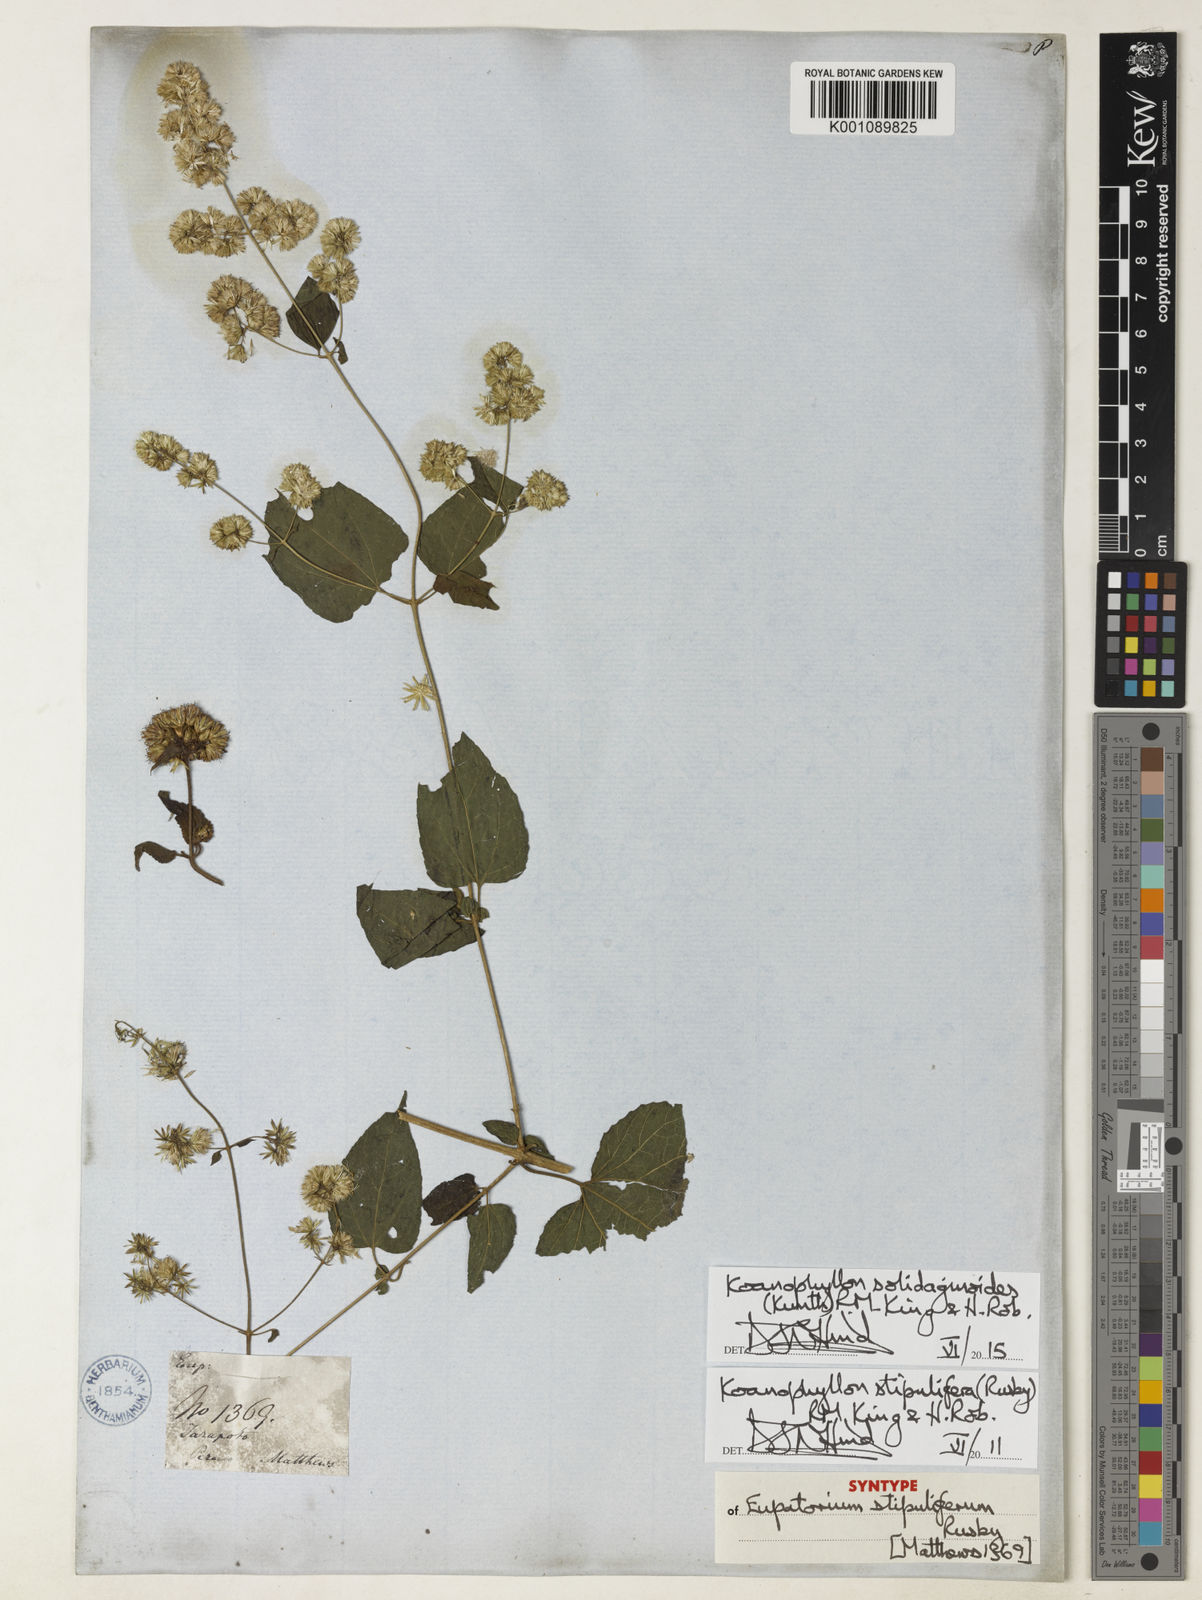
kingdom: Plantae
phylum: Tracheophyta
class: Magnoliopsida
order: Asterales
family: Asteraceae
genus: Koanophyllon
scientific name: Koanophyllon solidaginoides
